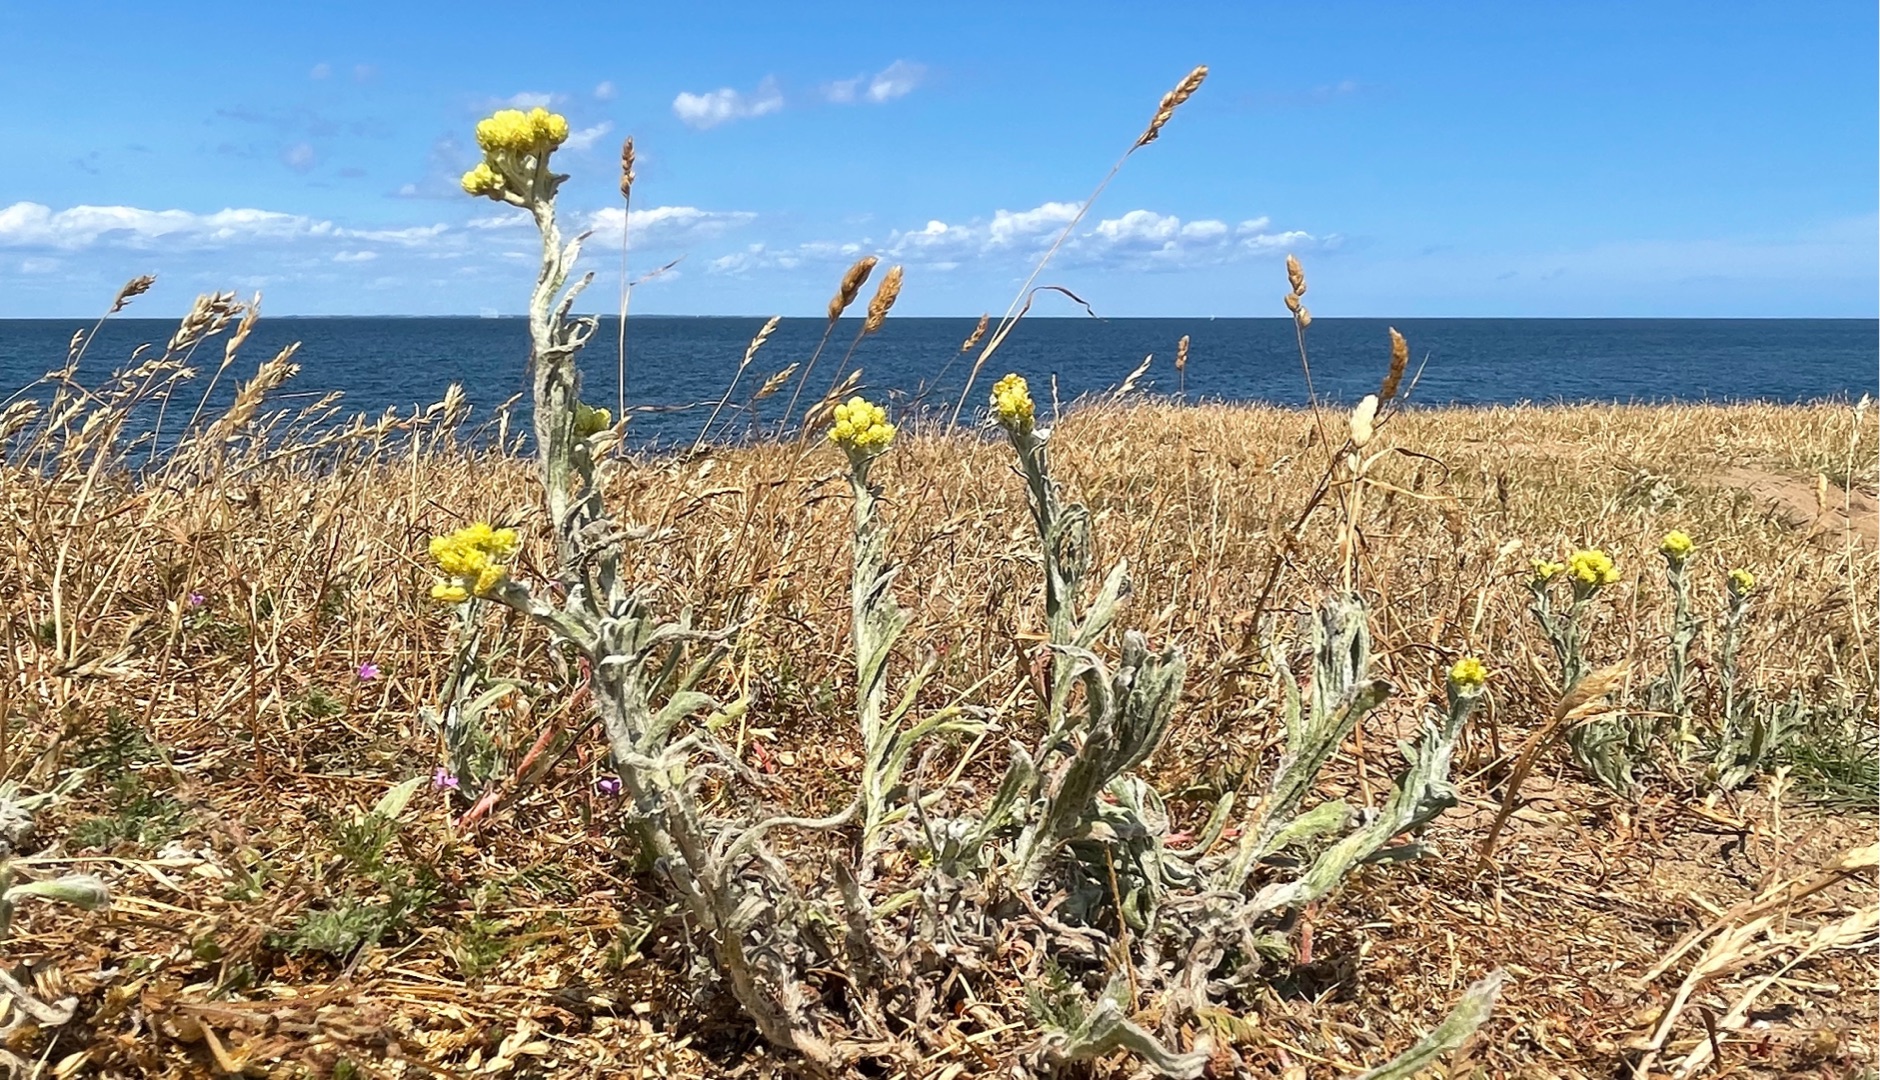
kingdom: Plantae
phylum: Tracheophyta
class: Magnoliopsida
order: Asterales
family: Asteraceae
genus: Helichrysum
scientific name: Helichrysum arenarium
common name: Gul evighedsblomst
